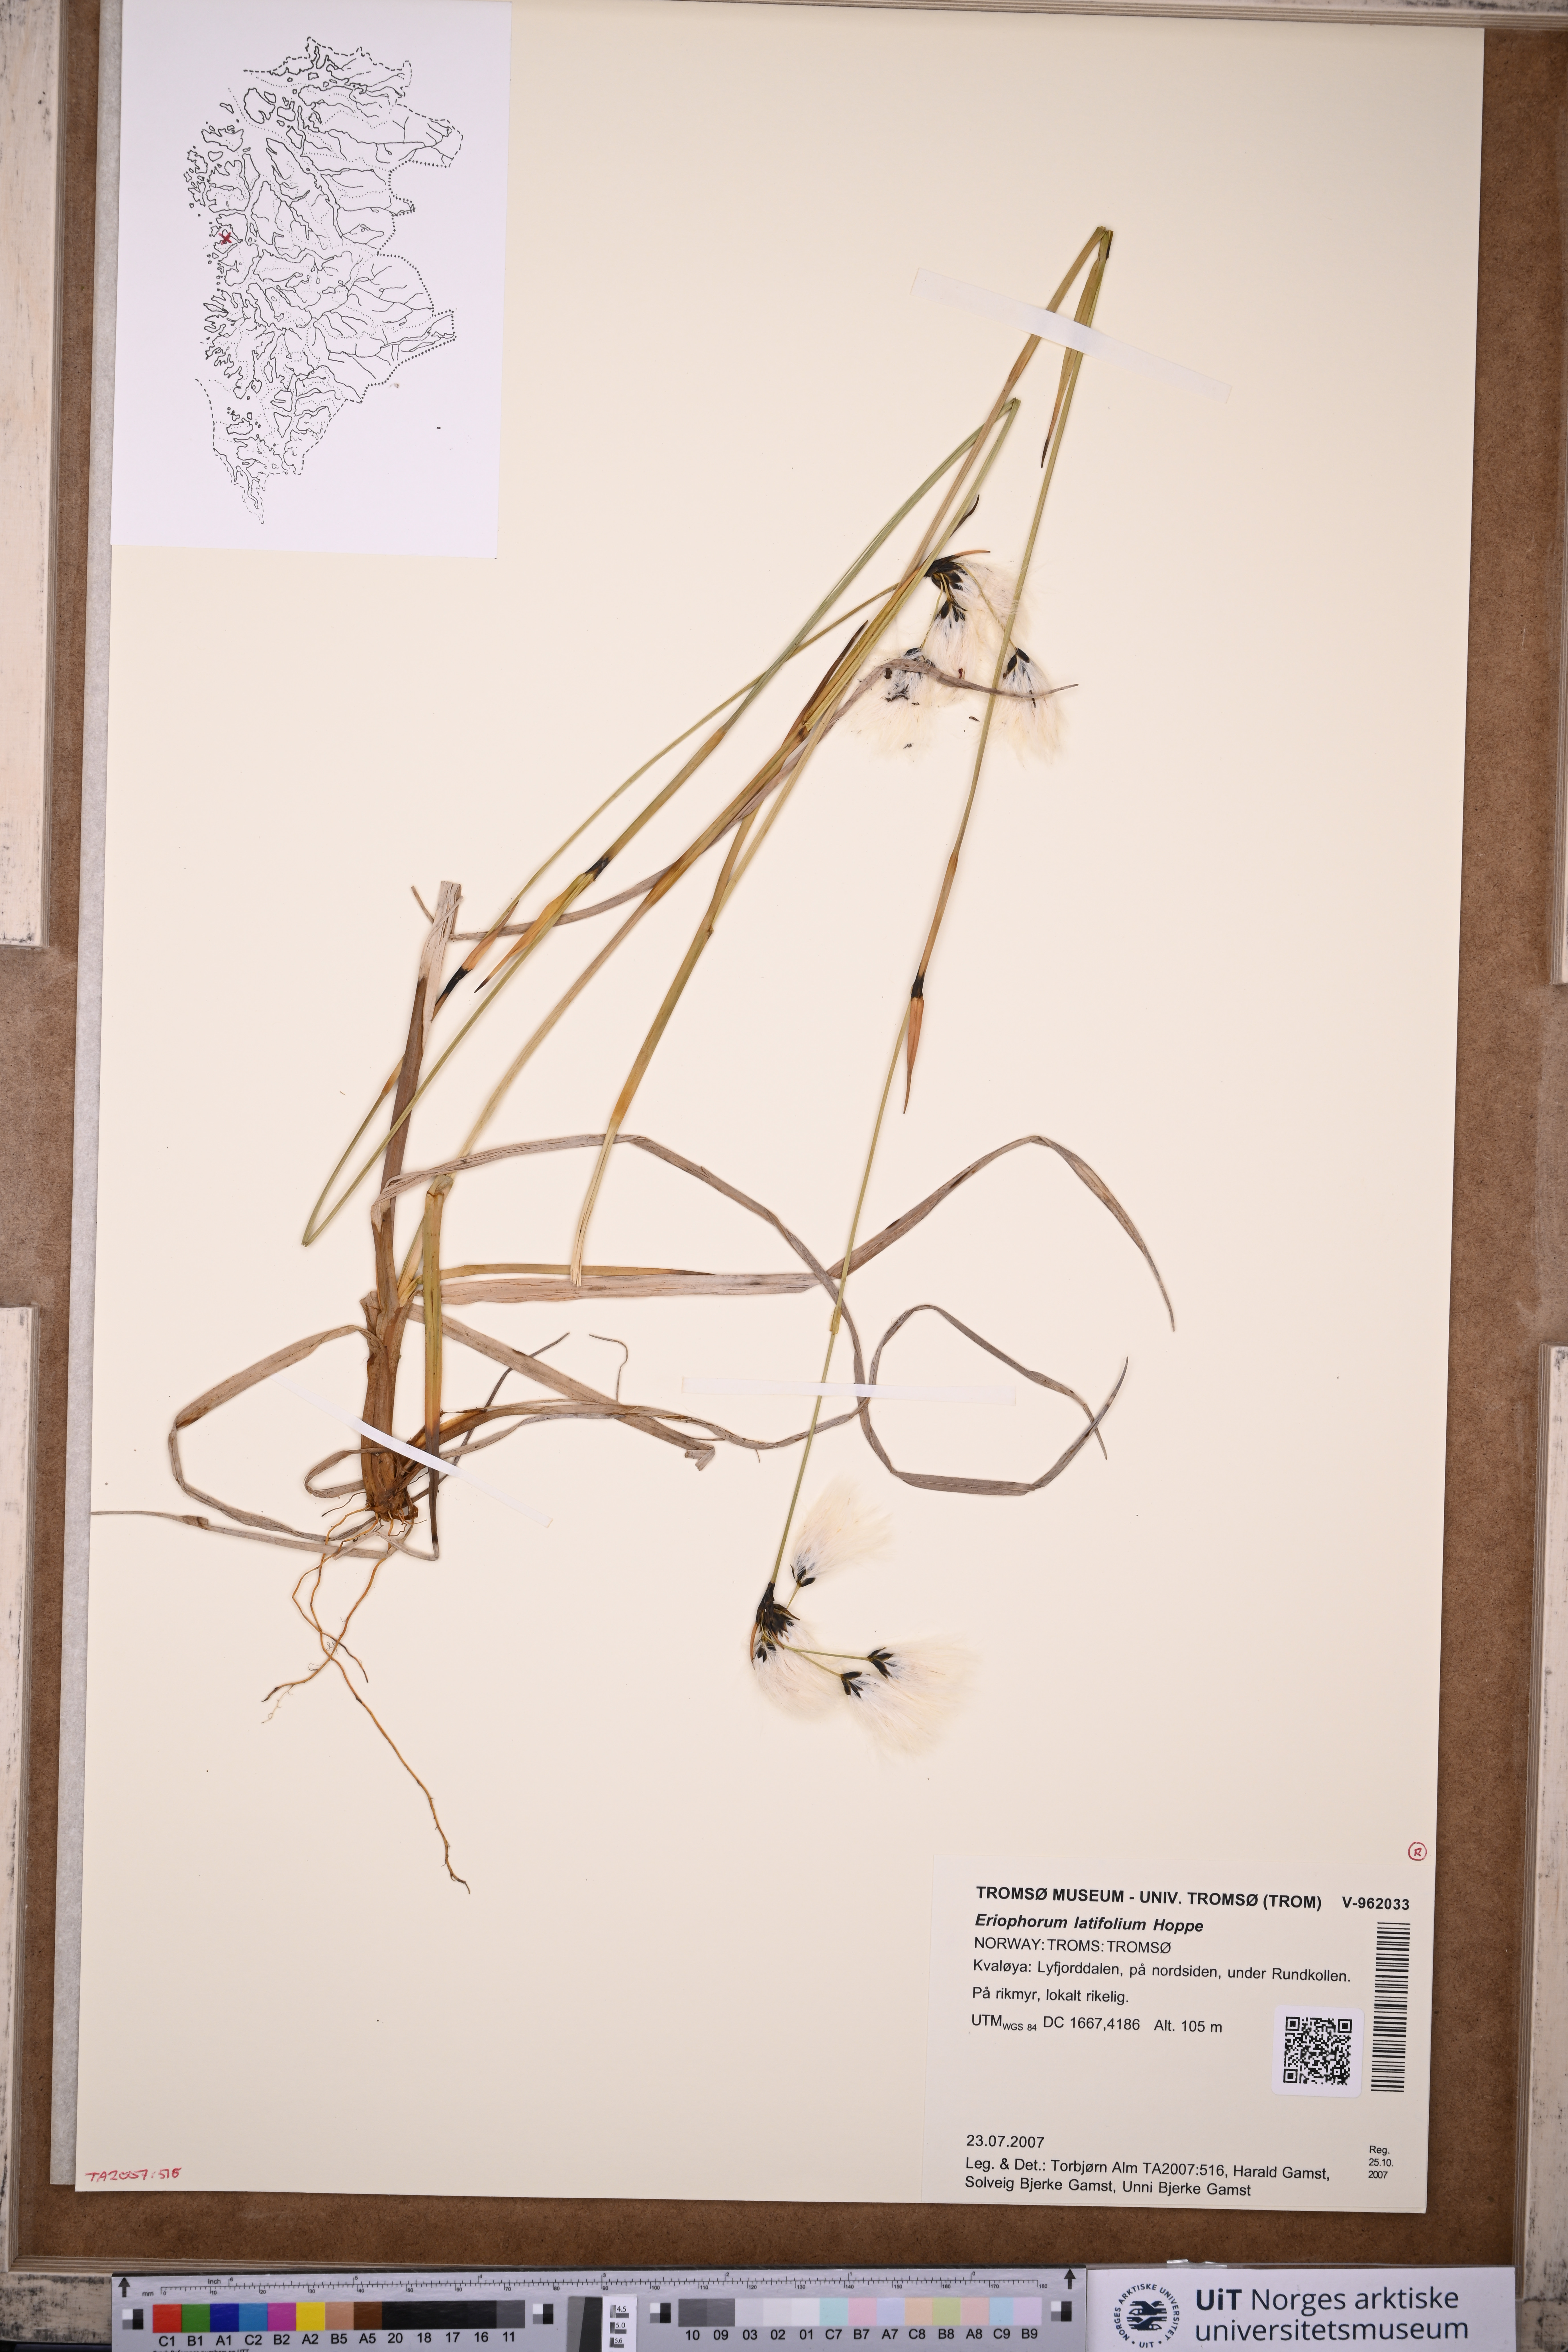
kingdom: Plantae
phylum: Tracheophyta
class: Liliopsida
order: Poales
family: Cyperaceae
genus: Eriophorum
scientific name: Eriophorum latifolium
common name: Broad-leaved cottongrass
